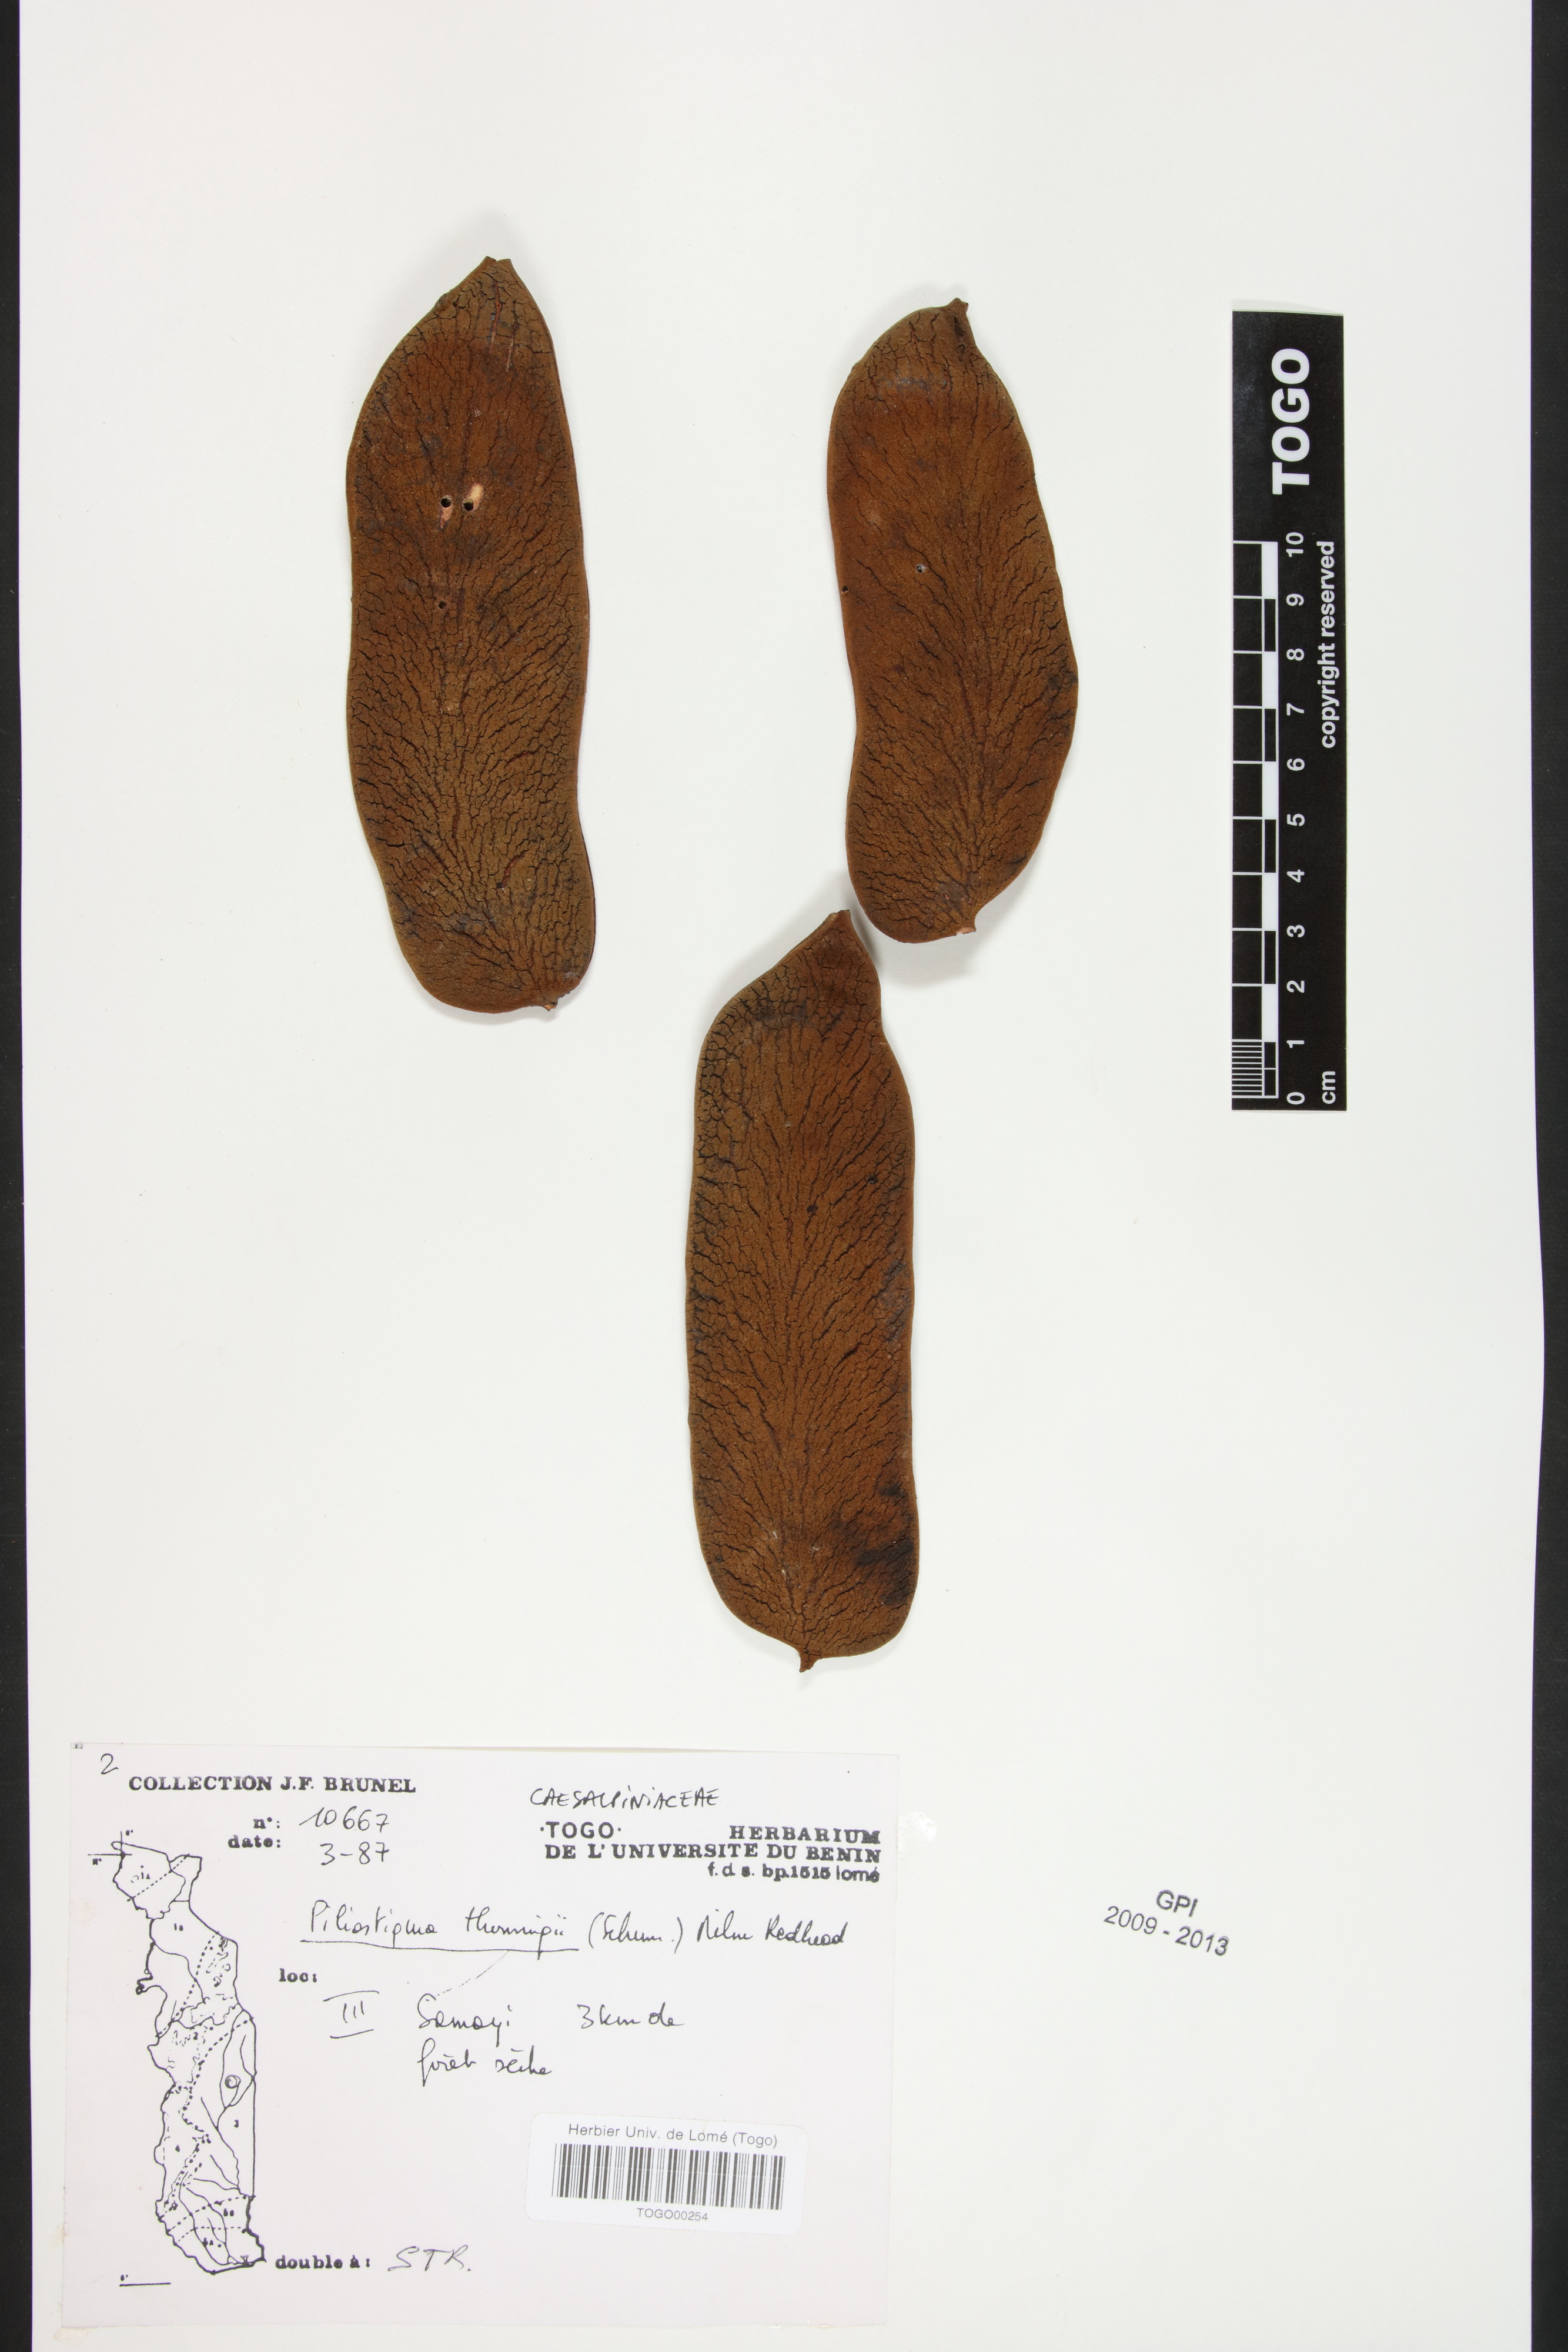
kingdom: Plantae
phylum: Tracheophyta
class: Magnoliopsida
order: Fabales
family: Fabaceae
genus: Piliostigma
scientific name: Piliostigma thonningii
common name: Kao
